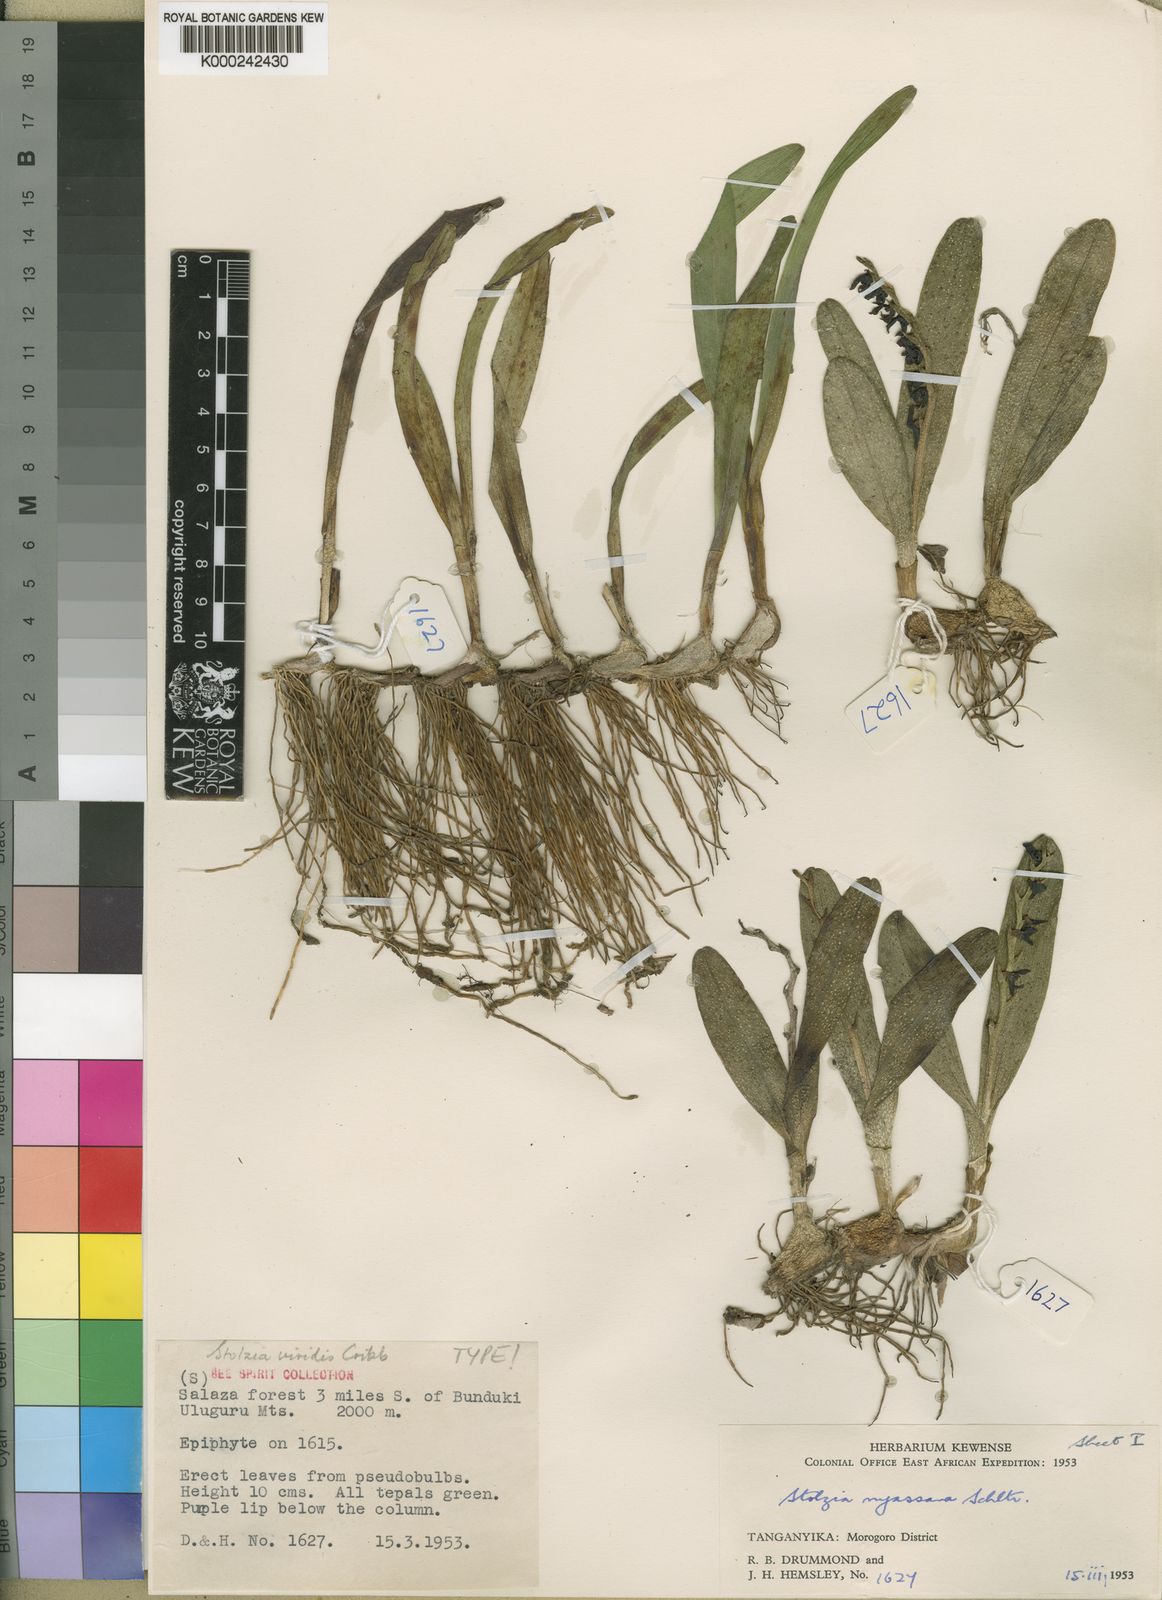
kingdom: Plantae
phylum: Tracheophyta
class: Liliopsida
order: Asparagales
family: Orchidaceae
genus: Porpax
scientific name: Porpax viridis
